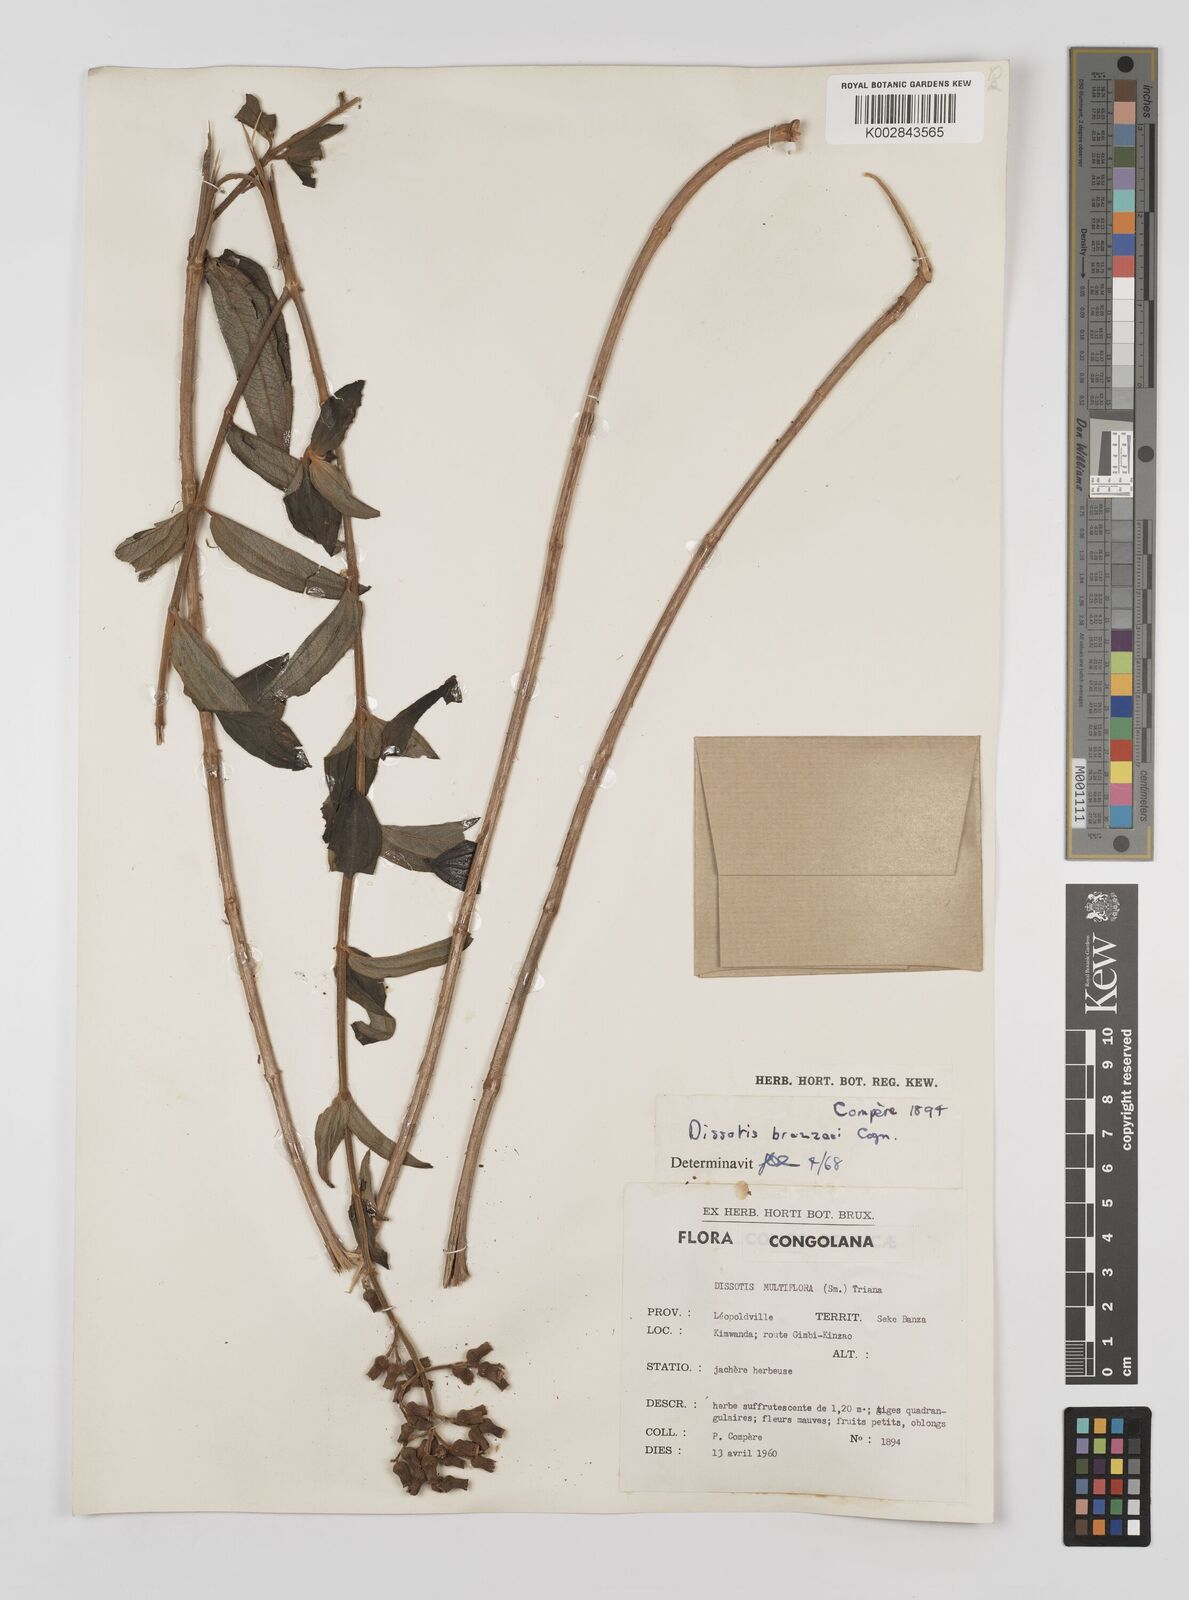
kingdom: Plantae
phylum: Tracheophyta
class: Magnoliopsida
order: Myrtales
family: Melastomataceae
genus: Dupineta
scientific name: Dupineta brazzae
